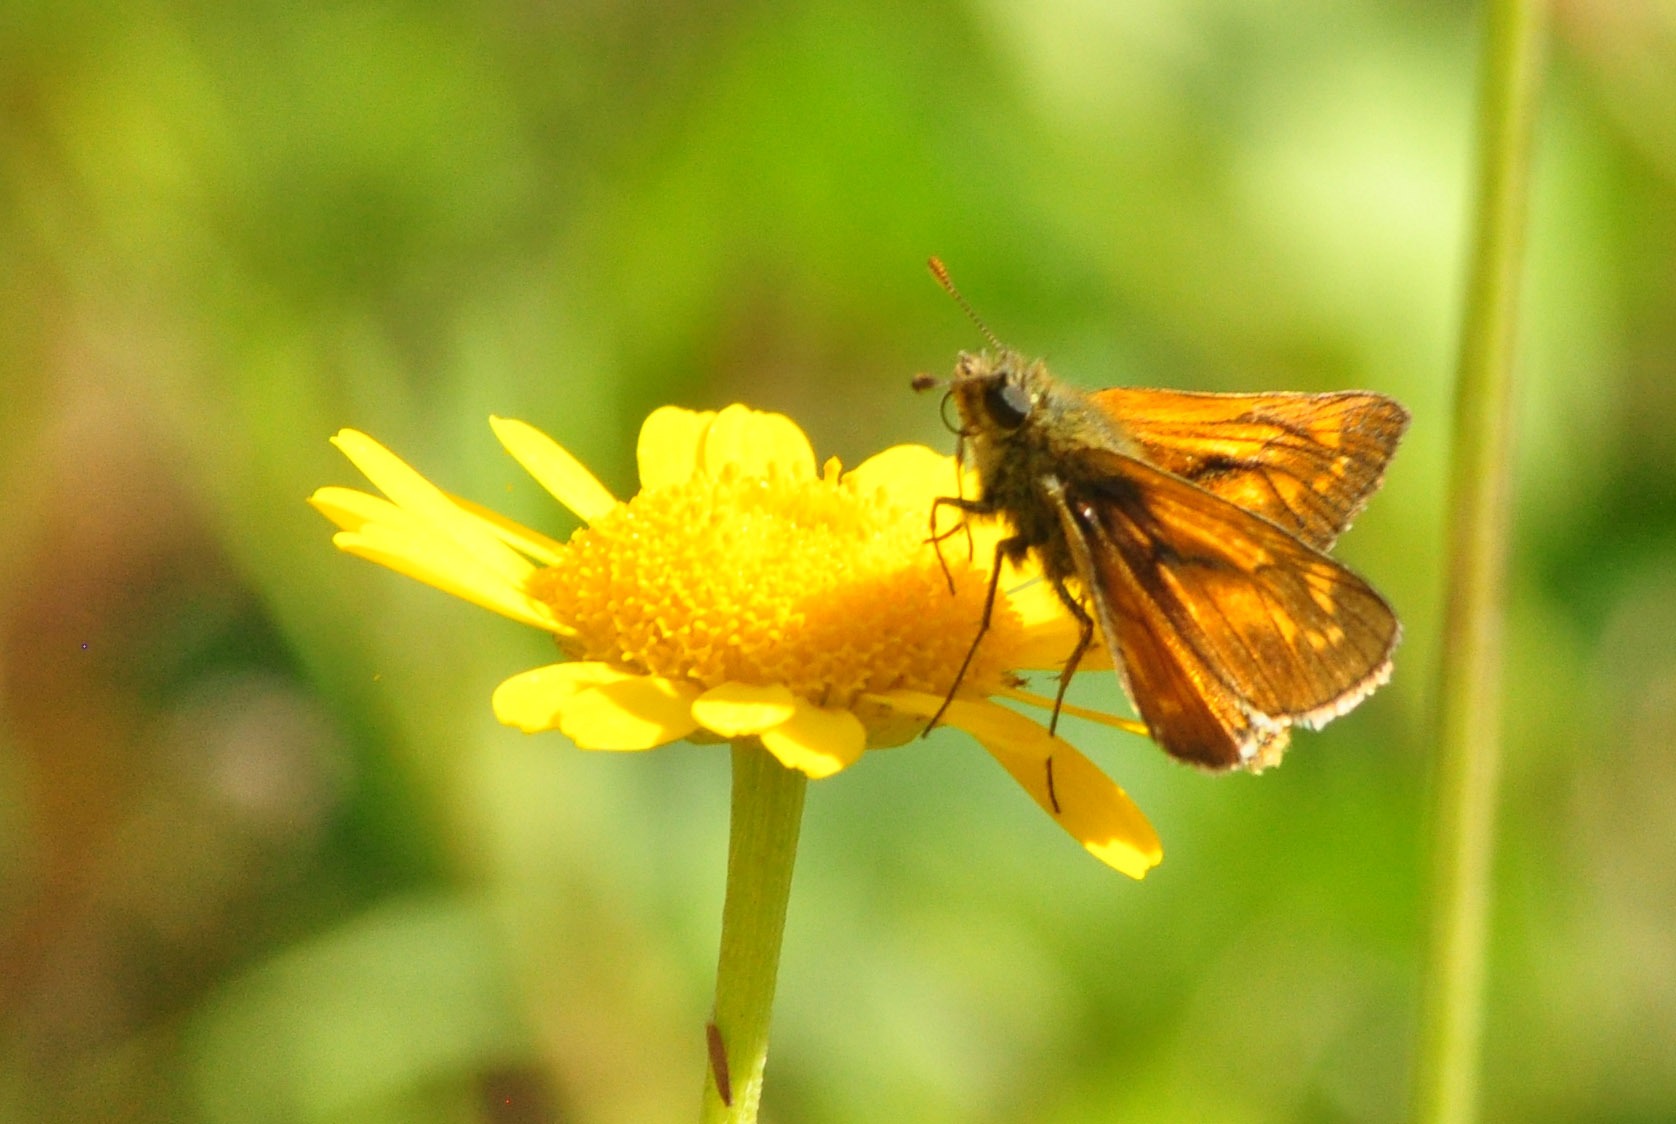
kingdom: Animalia
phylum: Arthropoda
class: Insecta
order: Lepidoptera
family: Hesperiidae
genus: Ochlodes
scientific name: Ochlodes venata
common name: Stor bredpande
